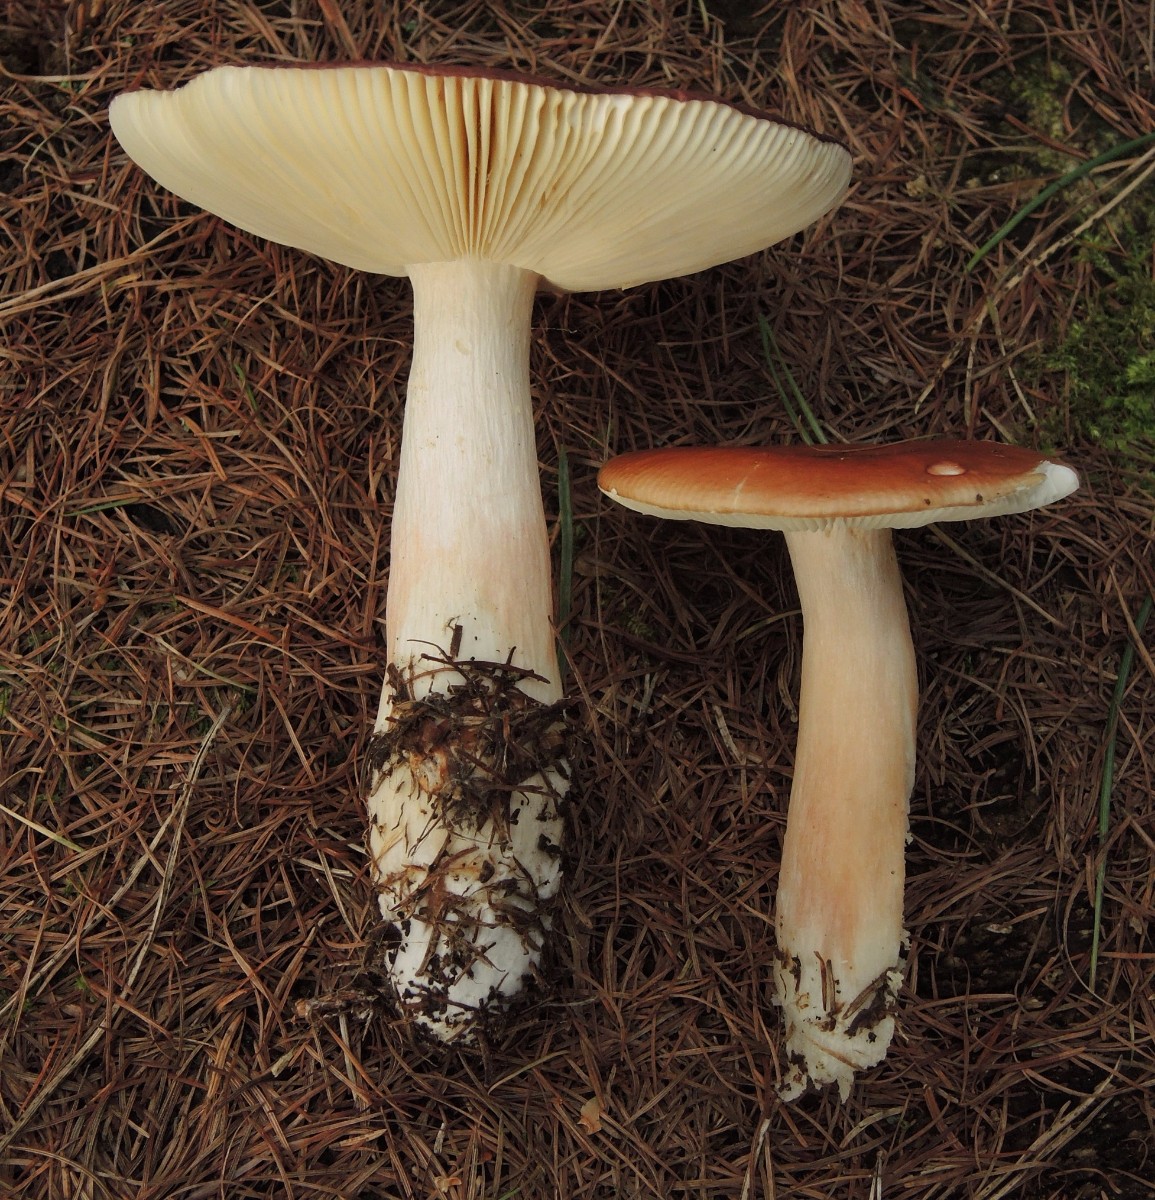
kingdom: Fungi
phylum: Basidiomycota
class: Agaricomycetes
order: Russulales
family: Russulaceae
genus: Russula
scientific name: Russula xerampelina
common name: hummer-skørhat
